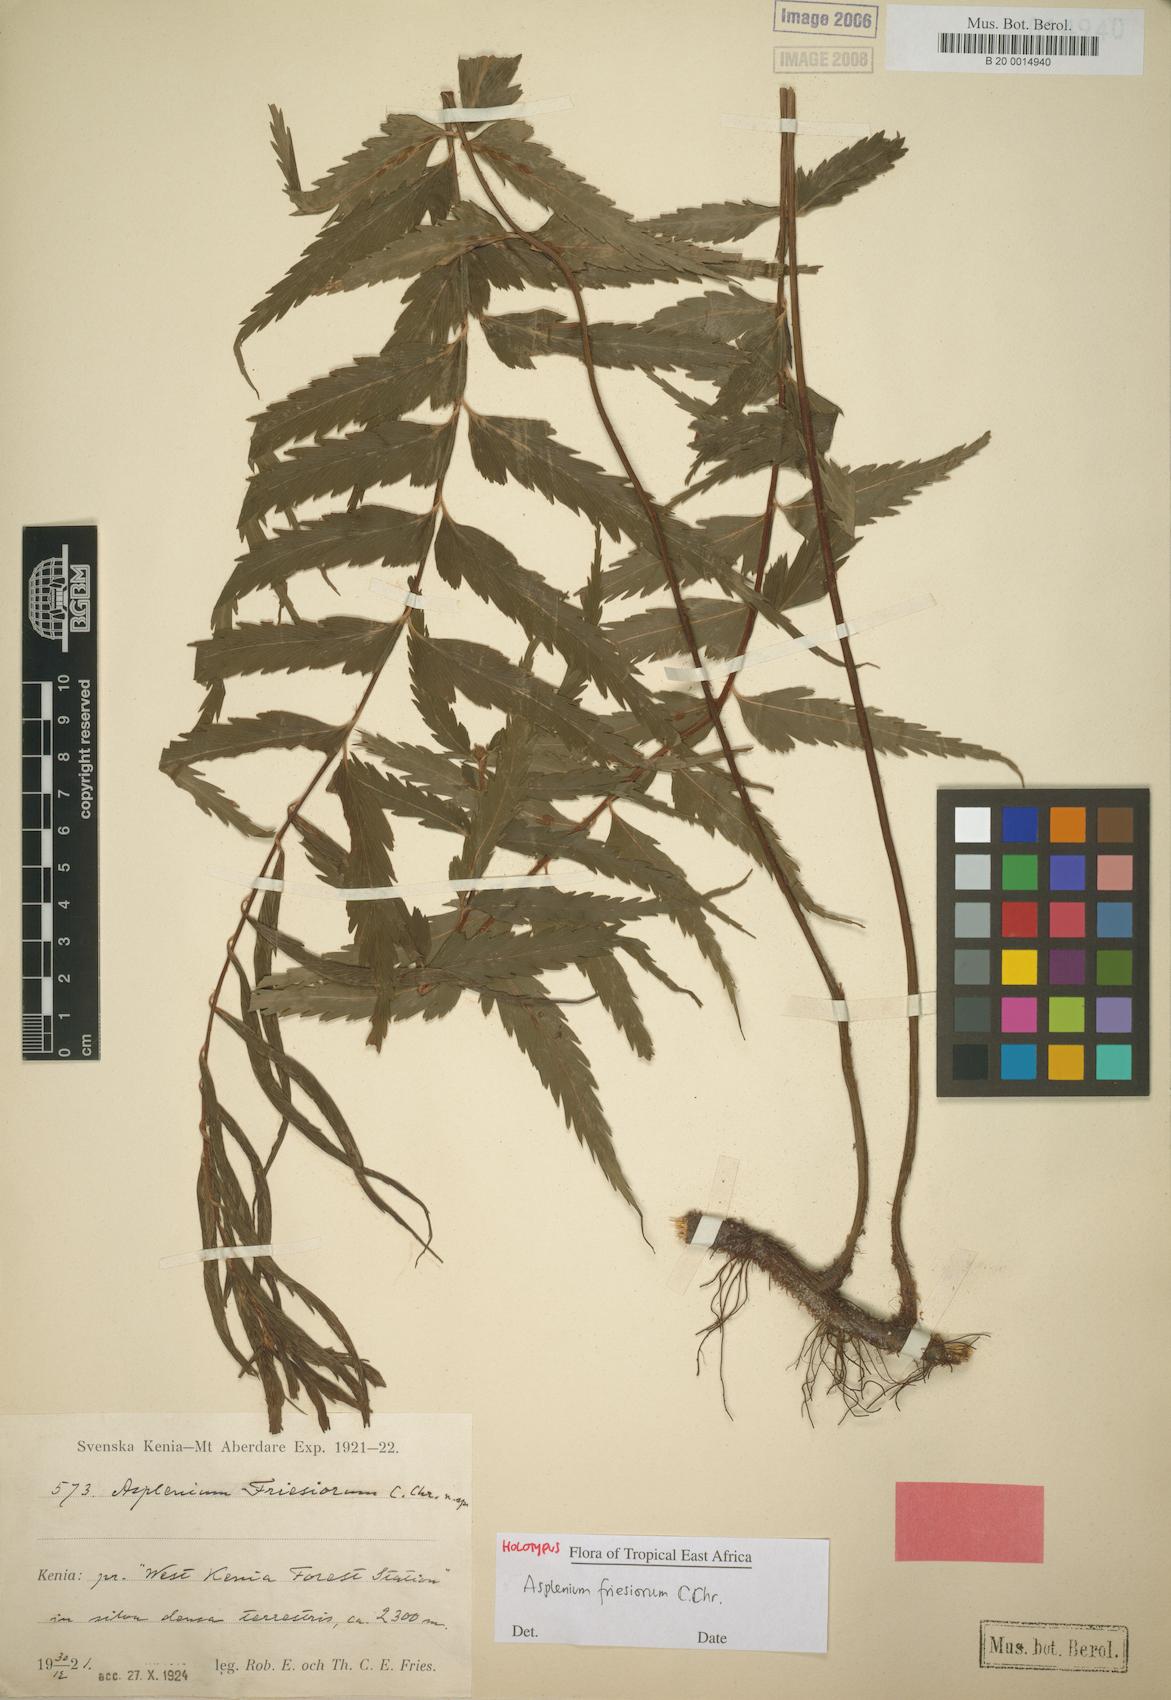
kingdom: Plantae
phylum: Tracheophyta
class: Polypodiopsida
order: Polypodiales
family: Aspleniaceae
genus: Asplenium
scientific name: Asplenium gueinzianum
